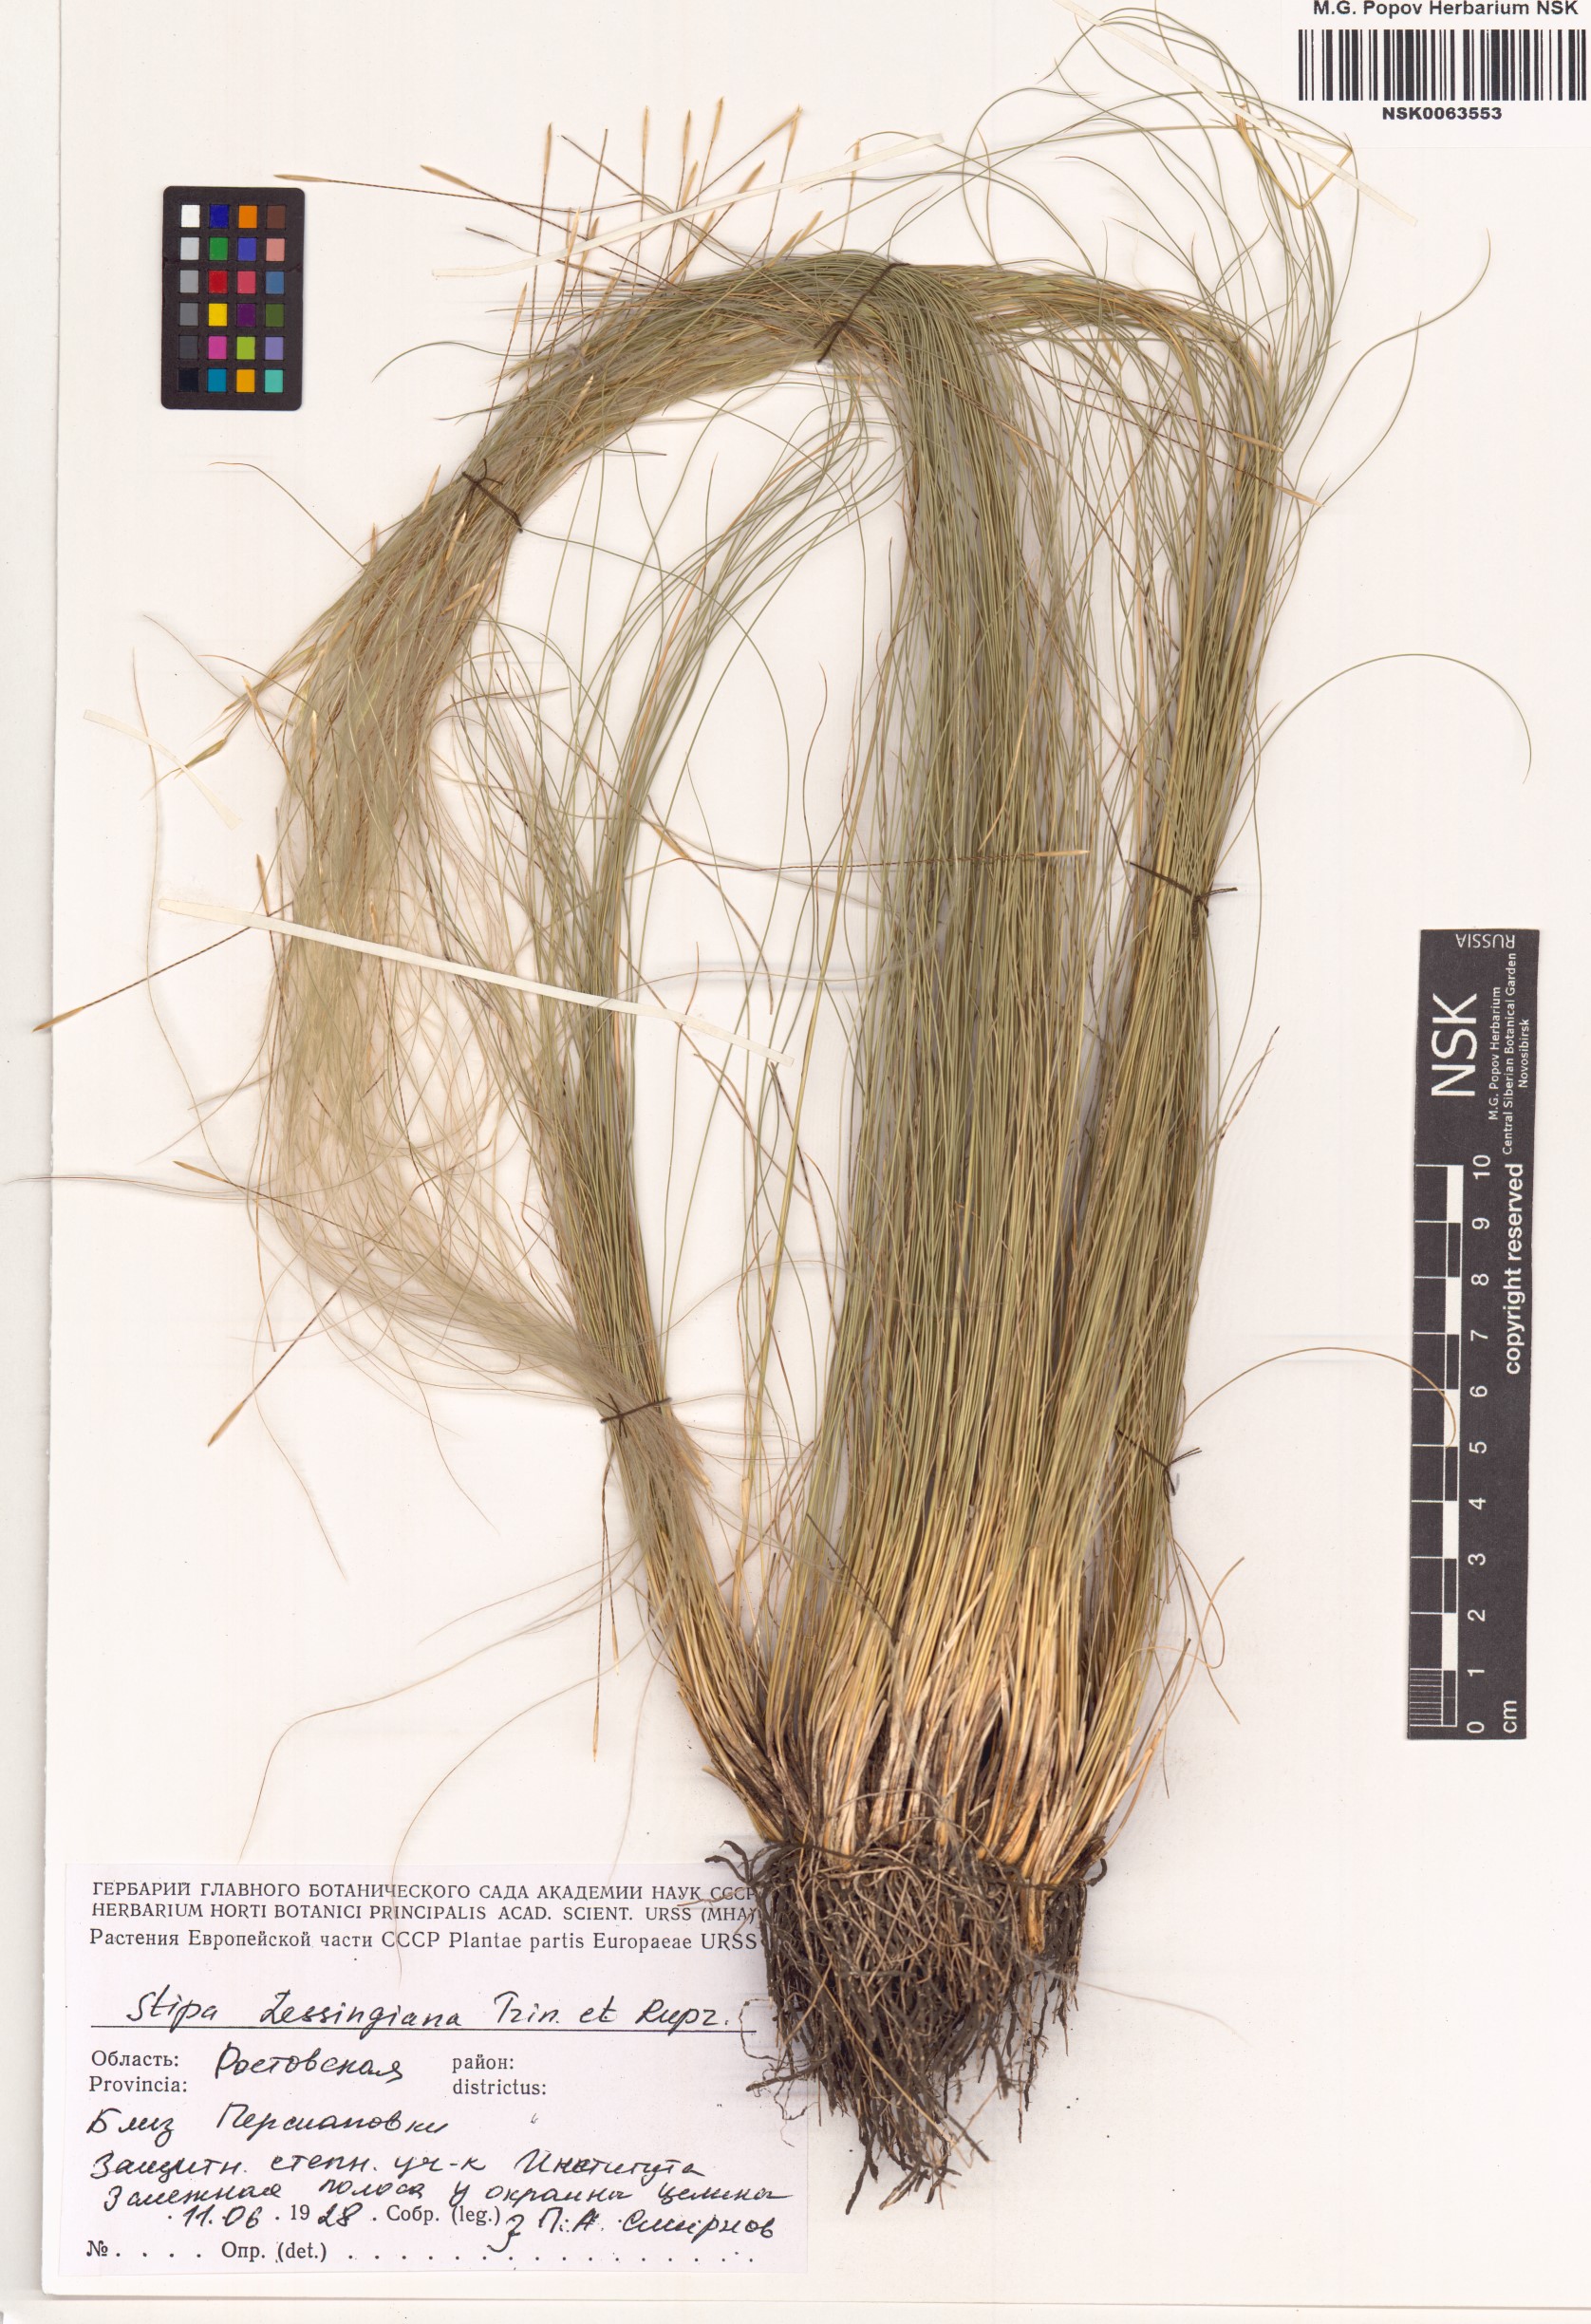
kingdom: Plantae
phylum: Tracheophyta
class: Liliopsida
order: Poales
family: Poaceae
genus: Stipa
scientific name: Stipa lessingiana
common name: Needle grass
